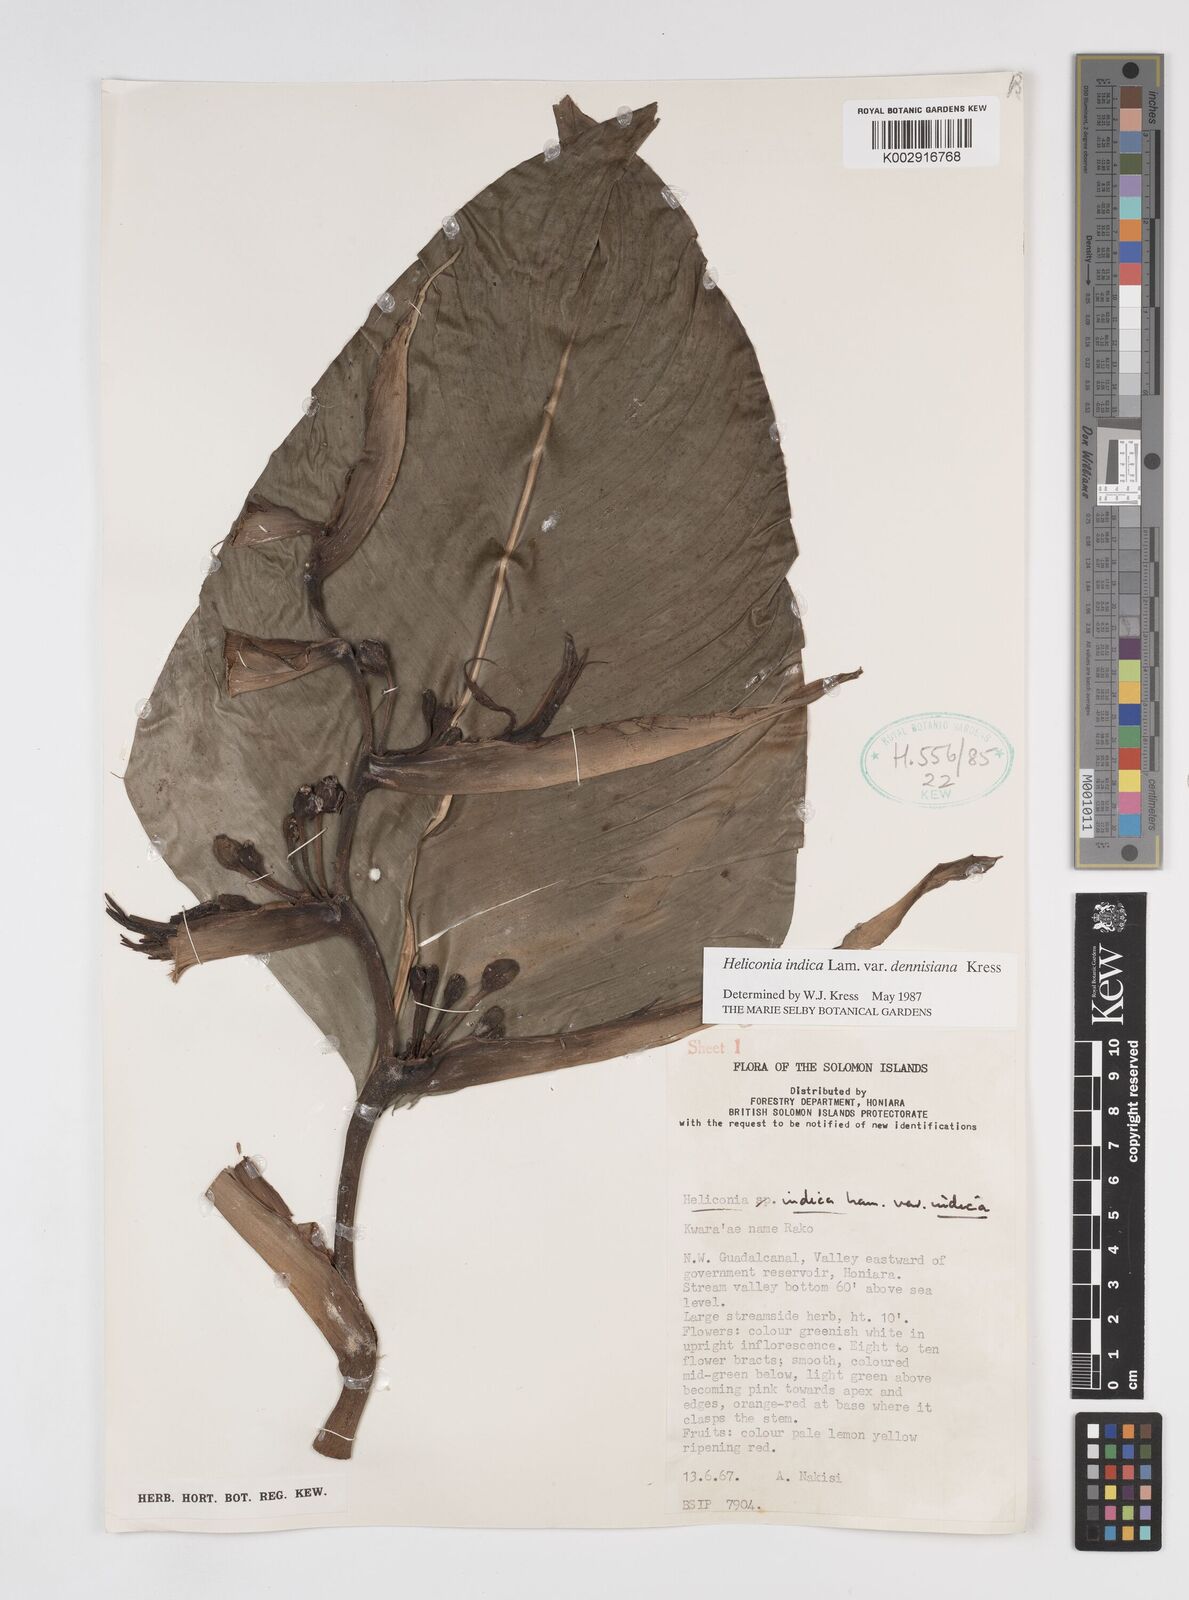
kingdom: Plantae
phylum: Tracheophyta
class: Liliopsida
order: Zingiberales
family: Heliconiaceae
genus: Heliconia
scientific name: Heliconia indica
